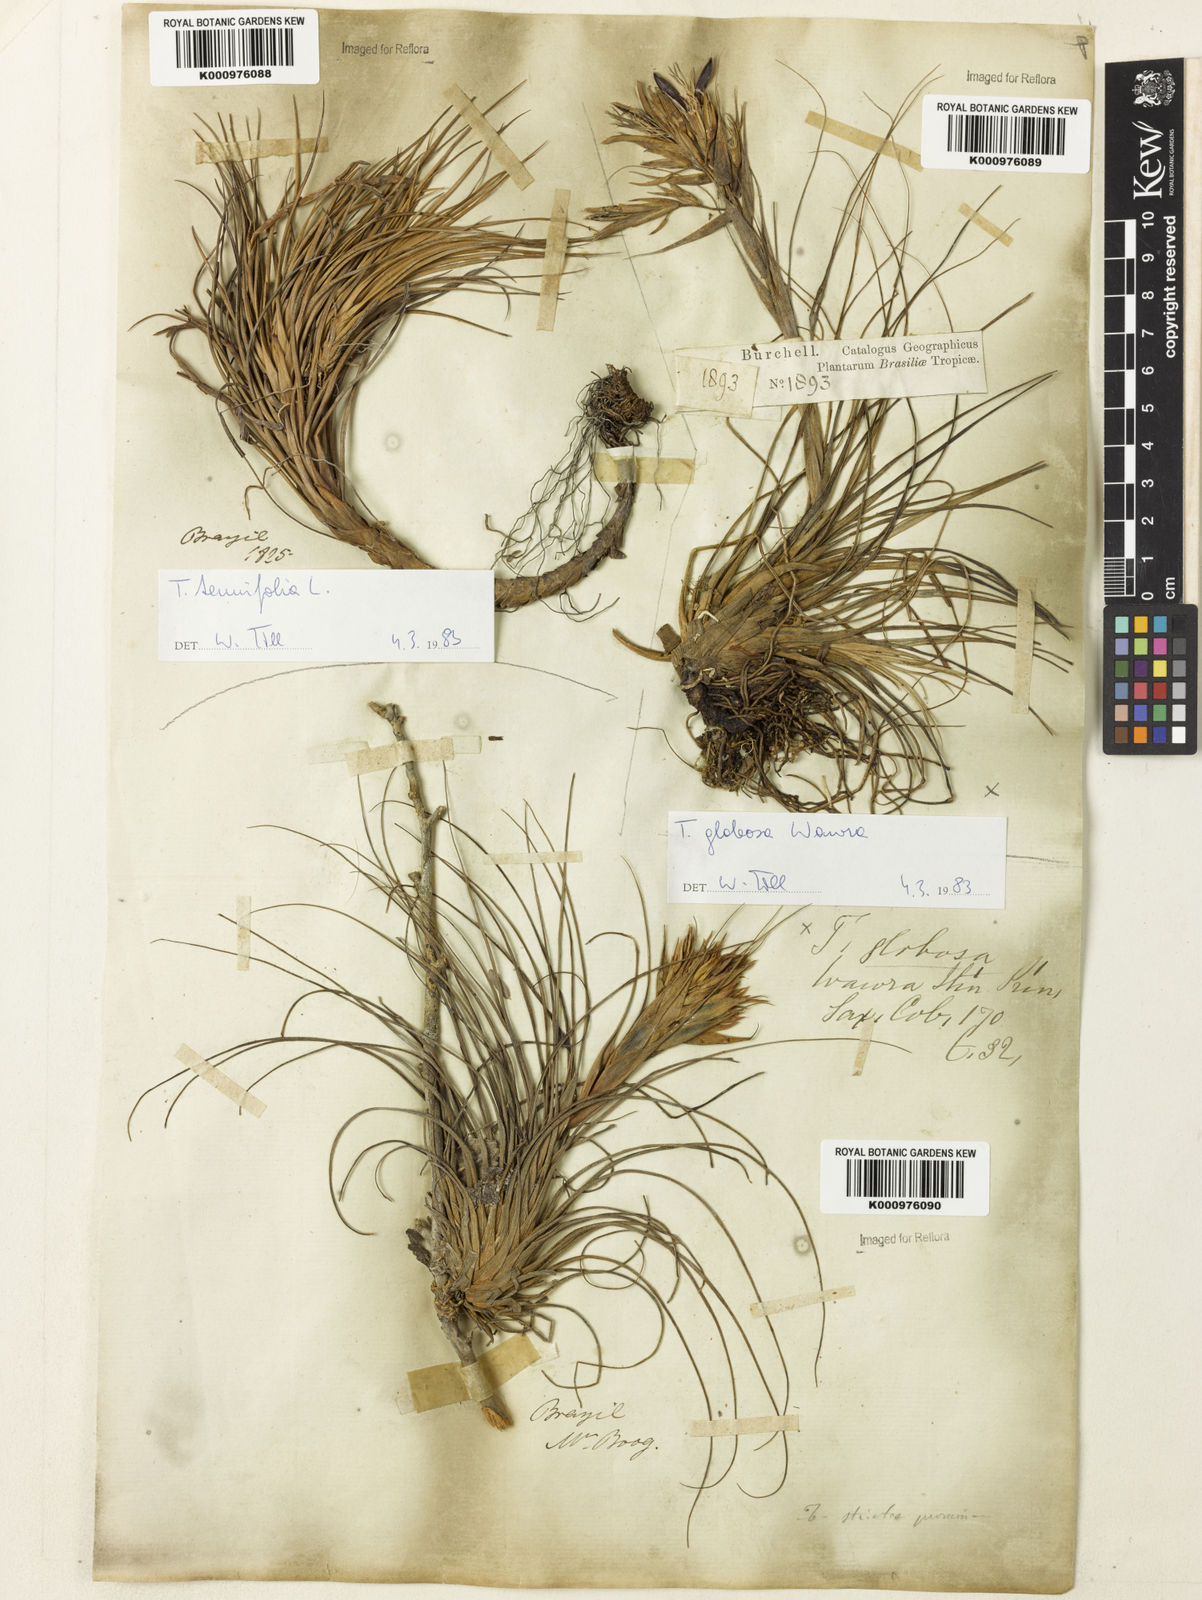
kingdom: Plantae
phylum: Tracheophyta
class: Liliopsida
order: Poales
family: Bromeliaceae
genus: Tillandsia
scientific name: Tillandsia globosa
